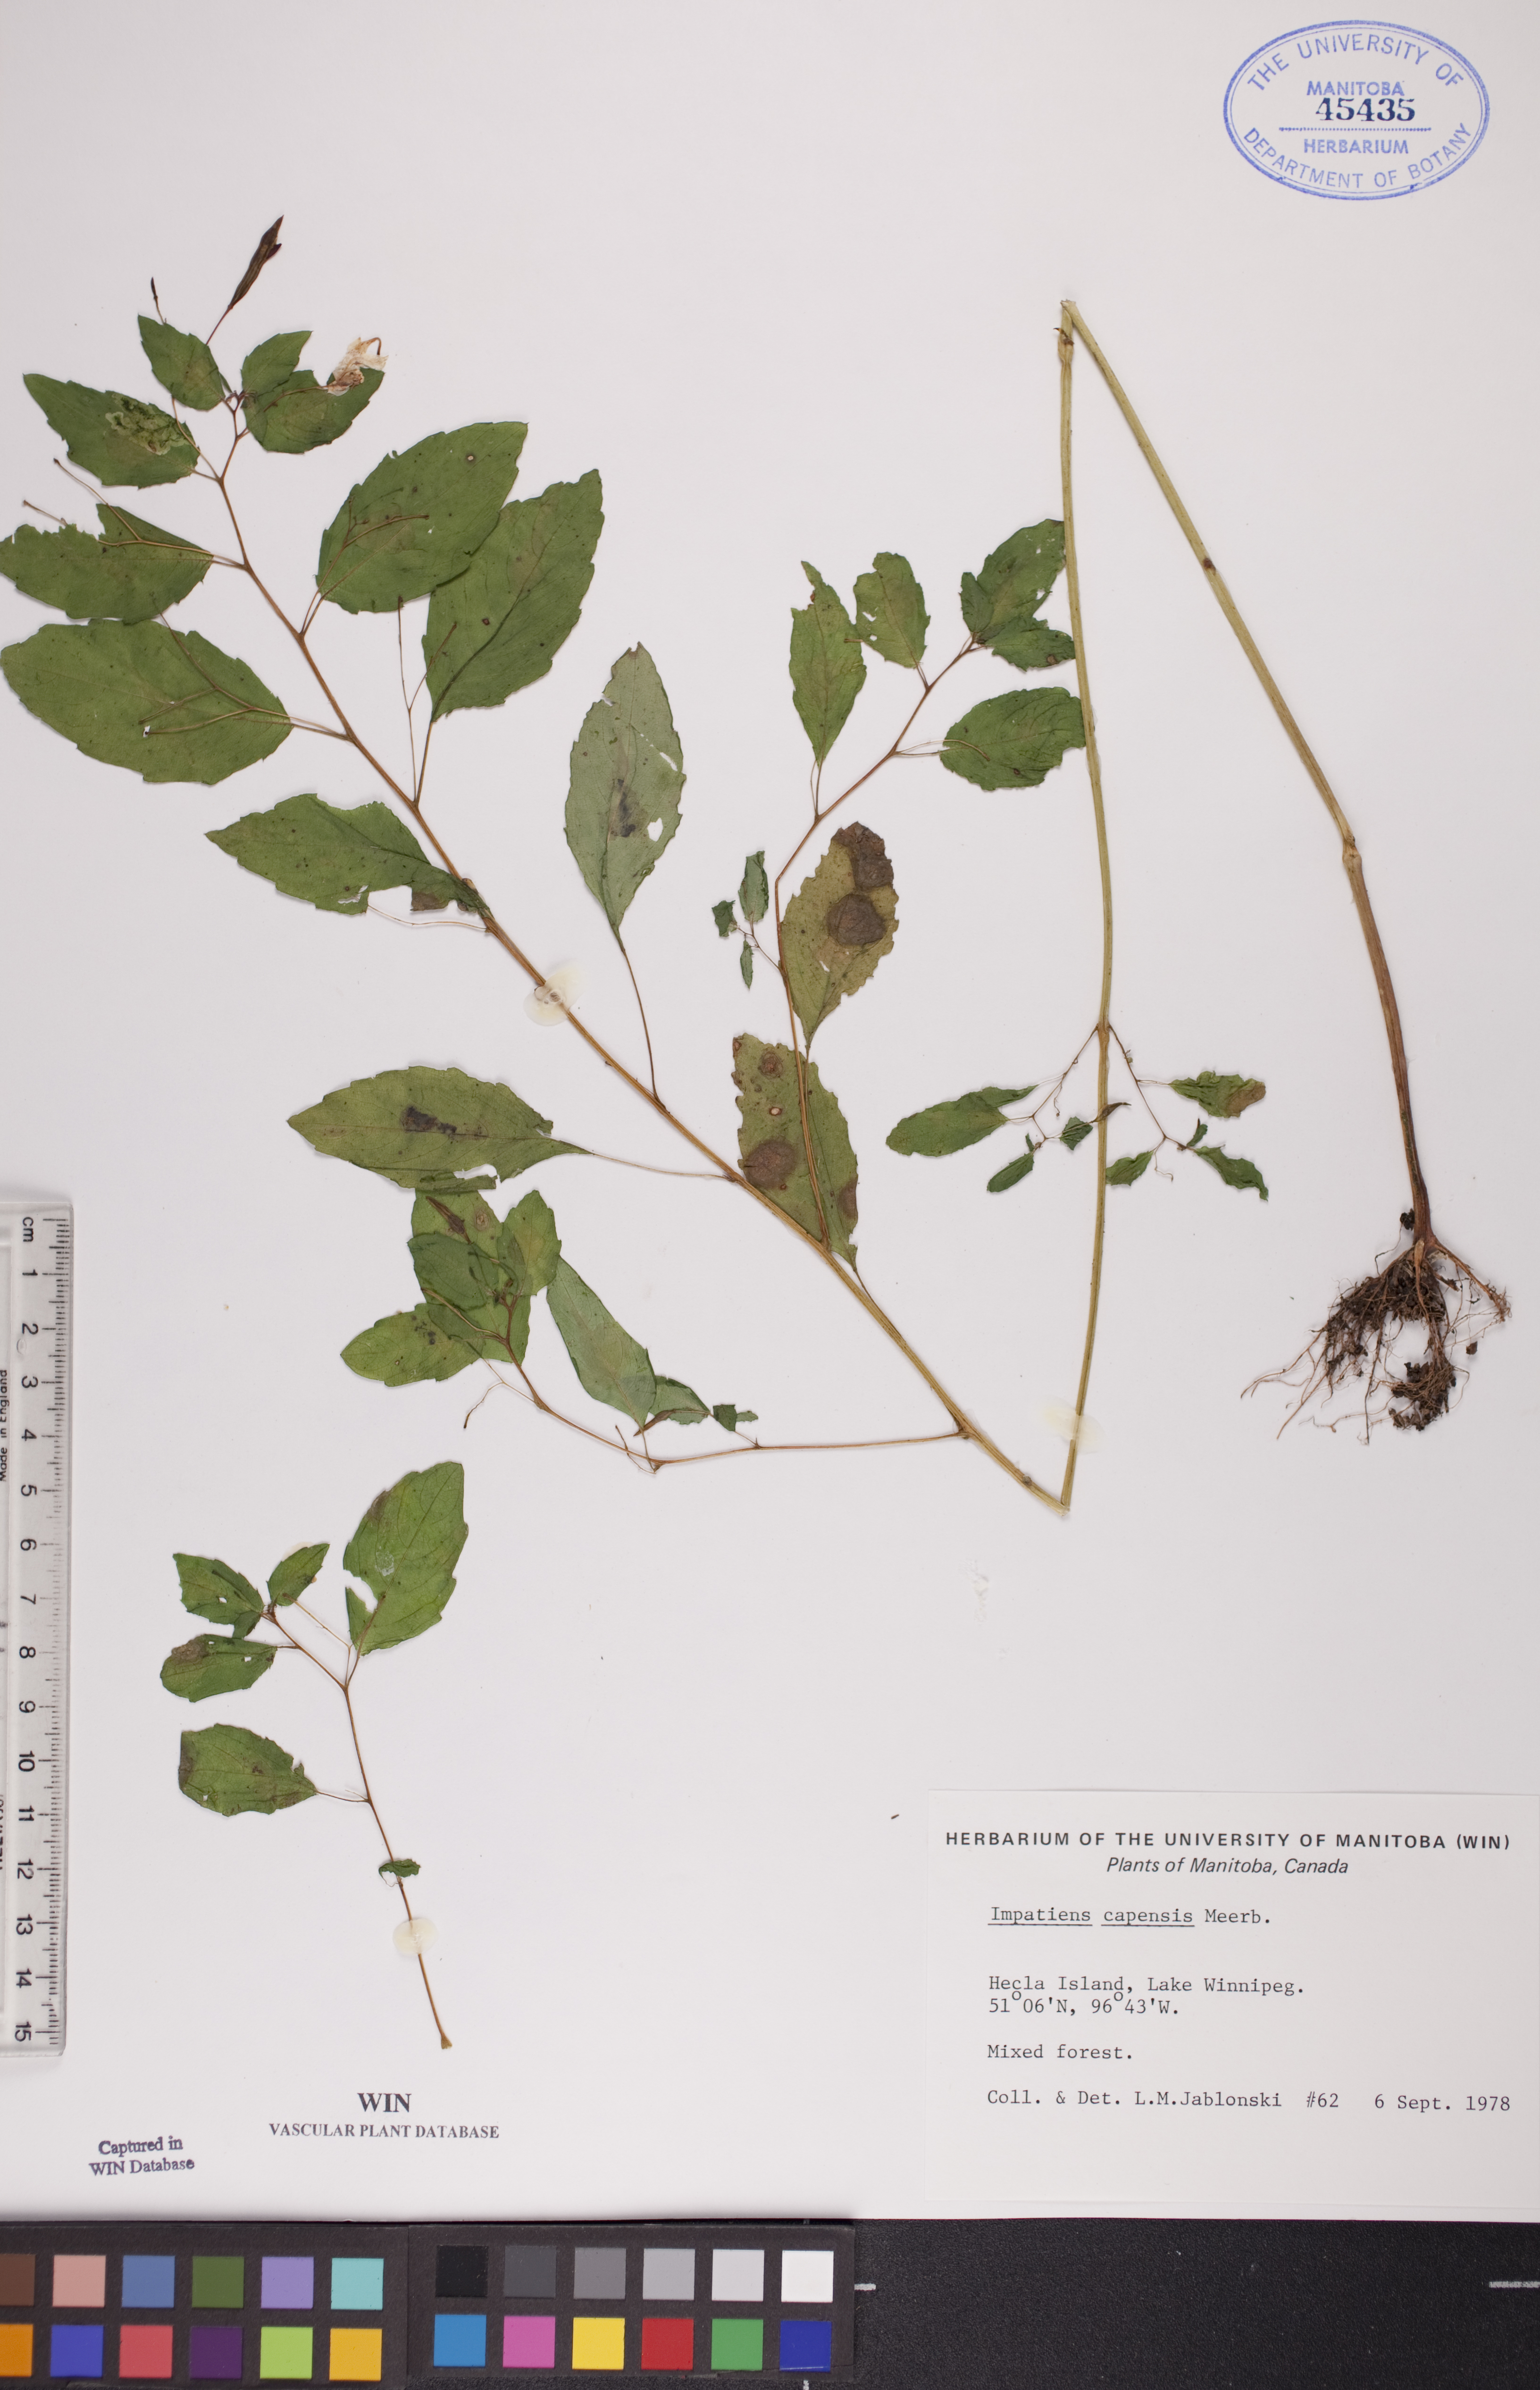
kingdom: Plantae
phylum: Tracheophyta
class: Magnoliopsida
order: Ericales
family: Balsaminaceae
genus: Impatiens
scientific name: Impatiens capensis
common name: Orange balsam
